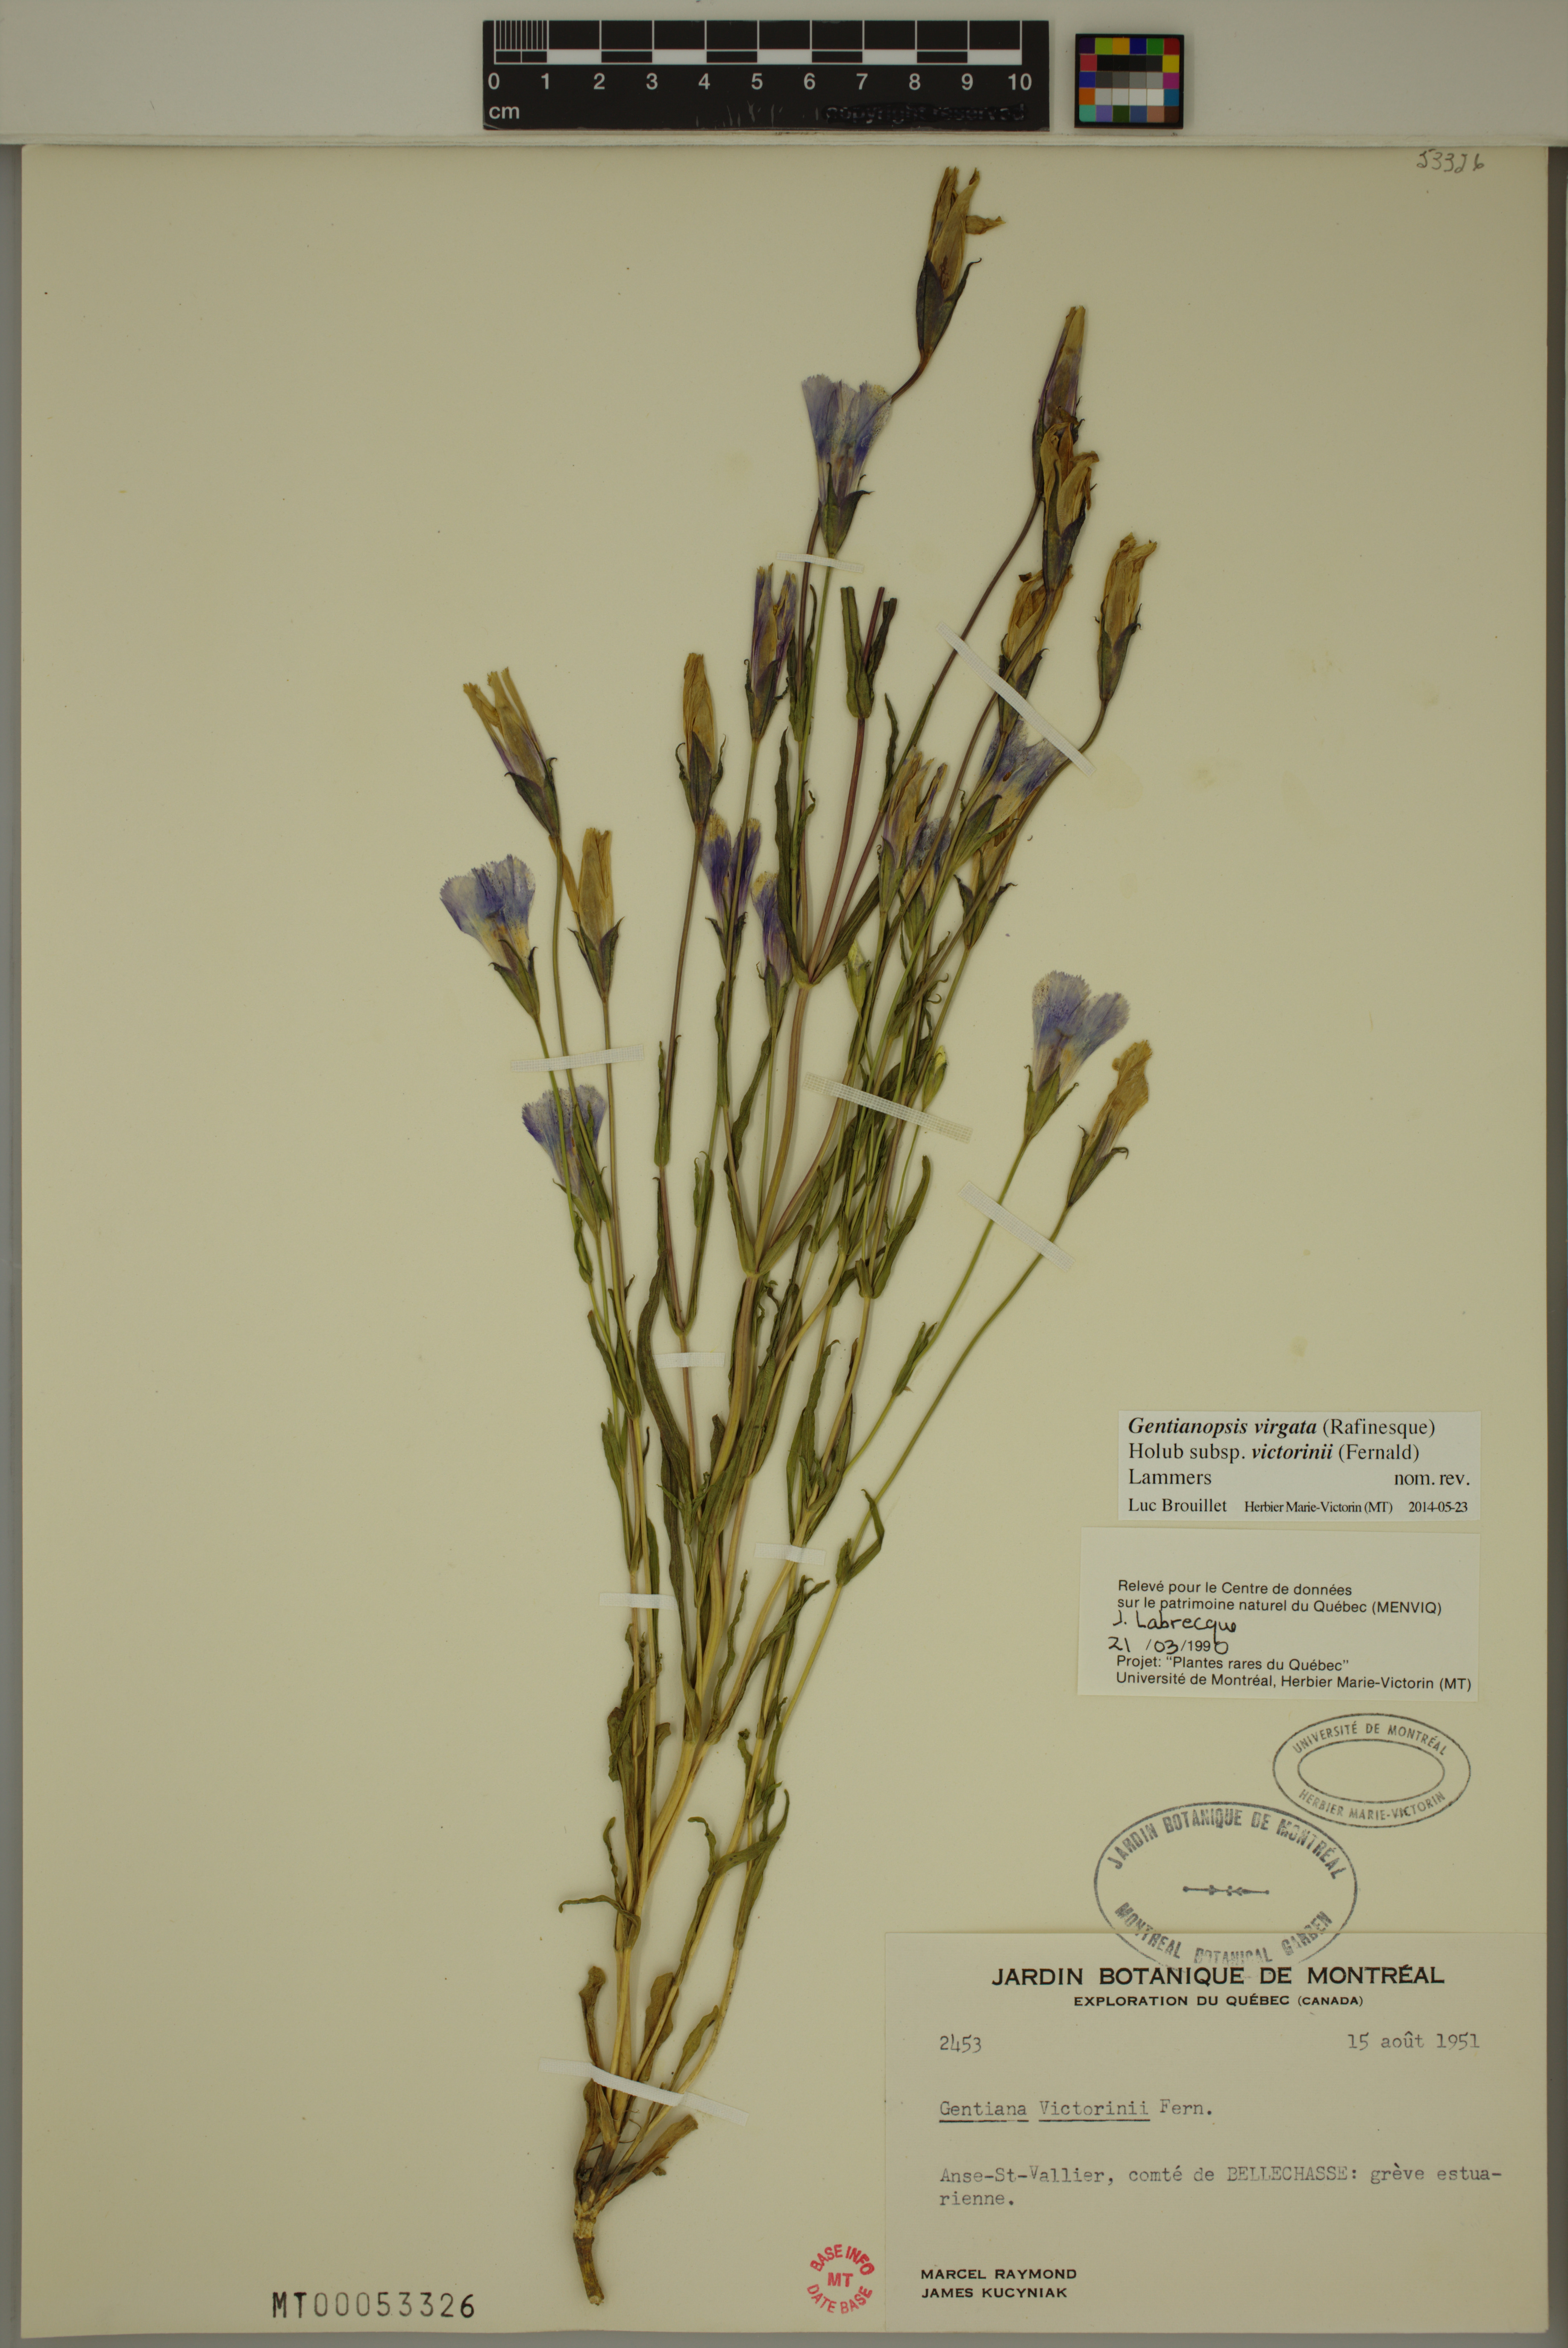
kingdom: Plantae
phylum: Tracheophyta
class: Magnoliopsida
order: Gentianales
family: Gentianaceae
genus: Gentianopsis
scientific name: Gentianopsis victorinii
